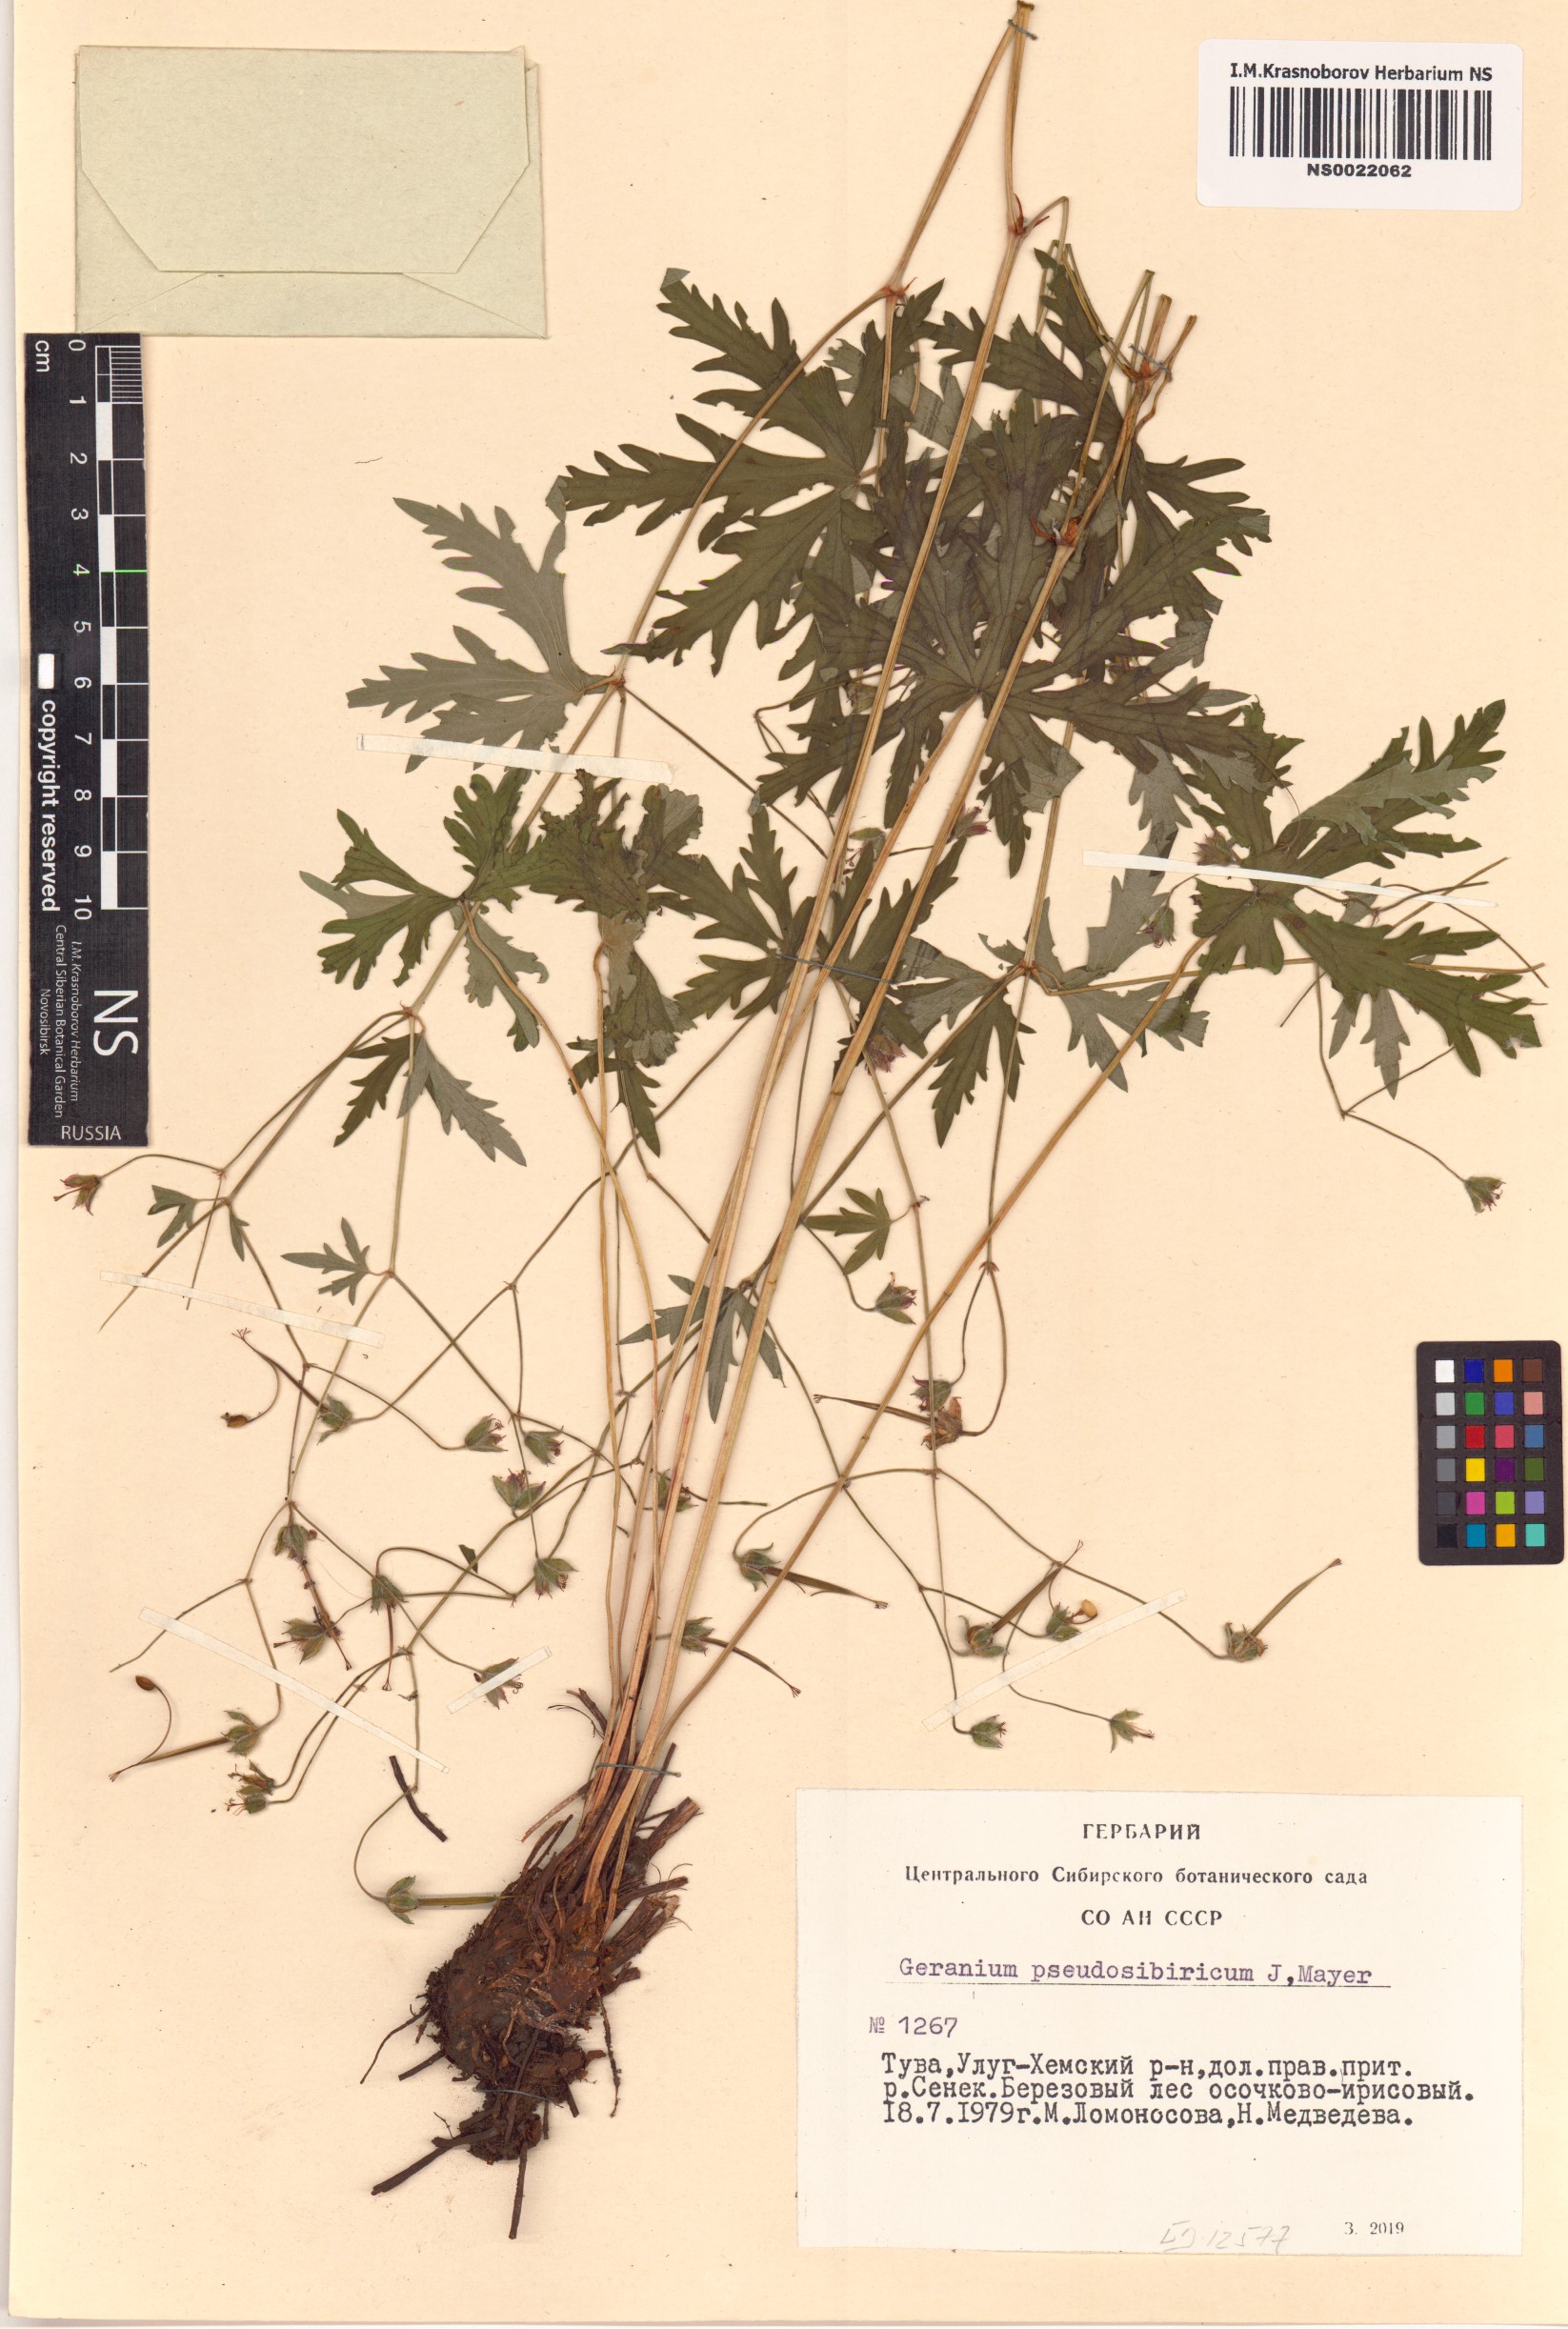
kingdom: Plantae
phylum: Tracheophyta
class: Magnoliopsida
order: Geraniales
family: Geraniaceae
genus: Geranium
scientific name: Geranium pseudosibiricum
